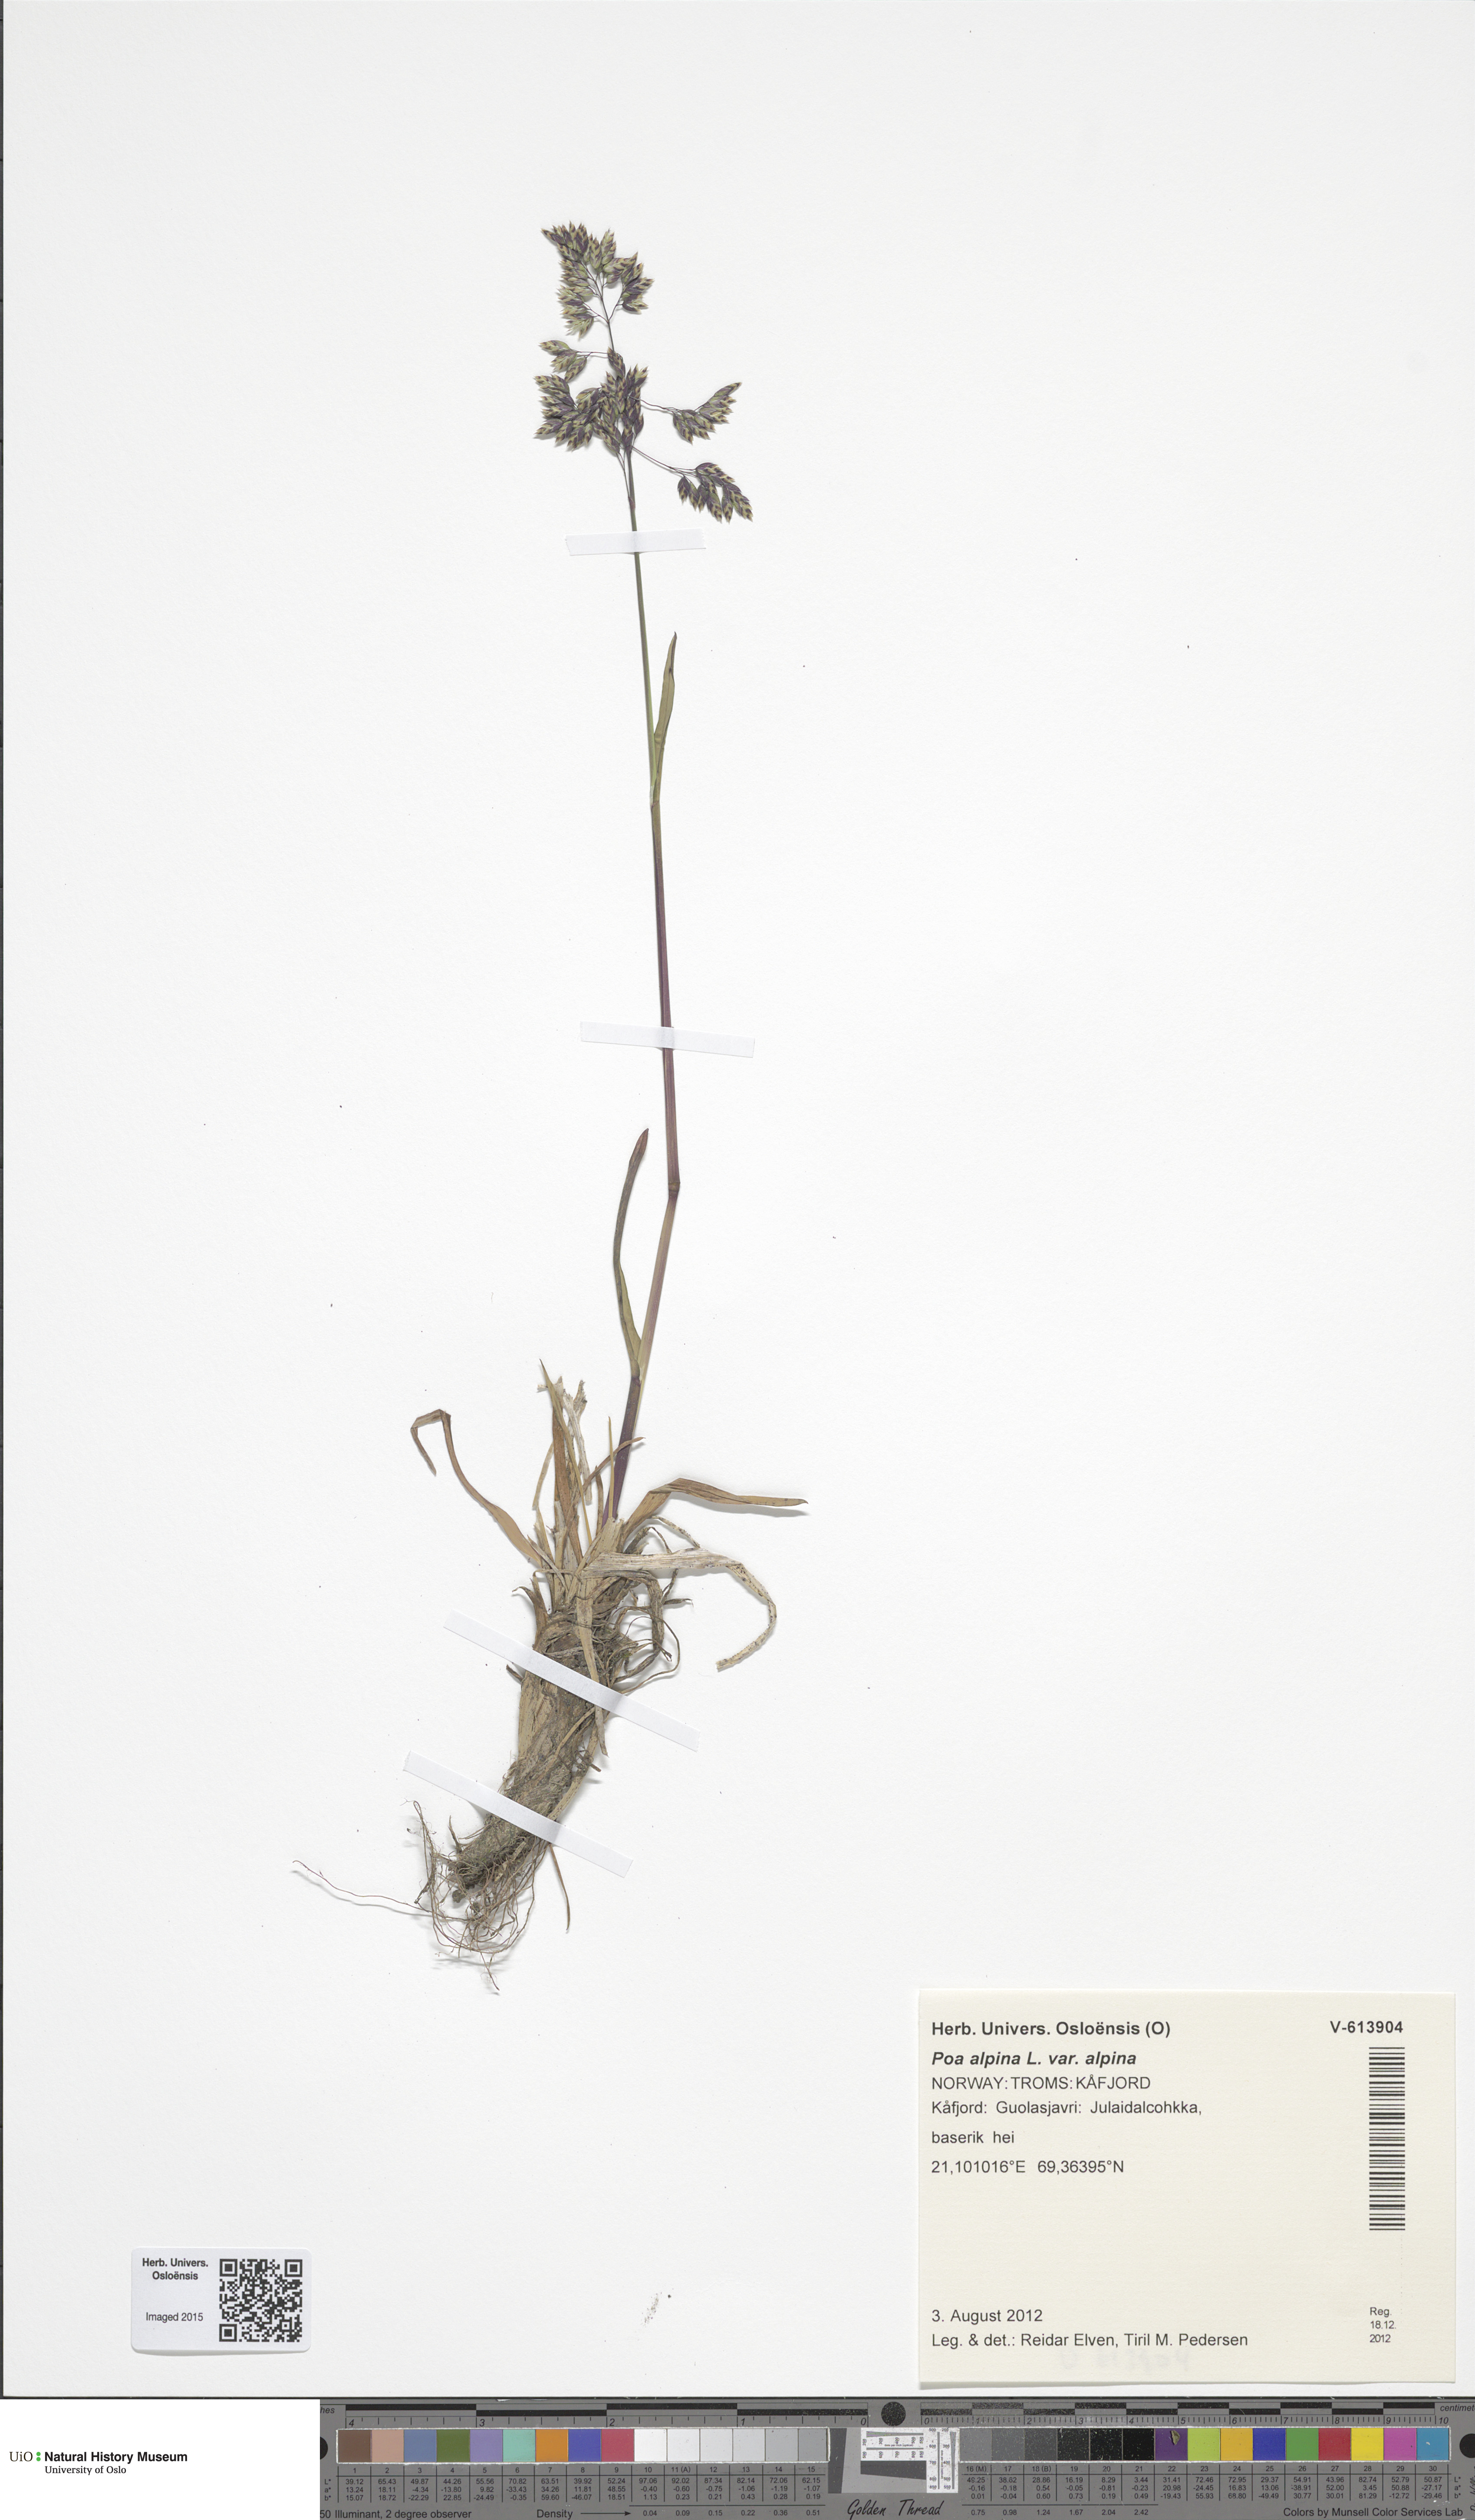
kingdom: Plantae
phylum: Tracheophyta
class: Liliopsida
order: Poales
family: Poaceae
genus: Poa
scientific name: Poa alpina
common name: Alpine bluegrass
